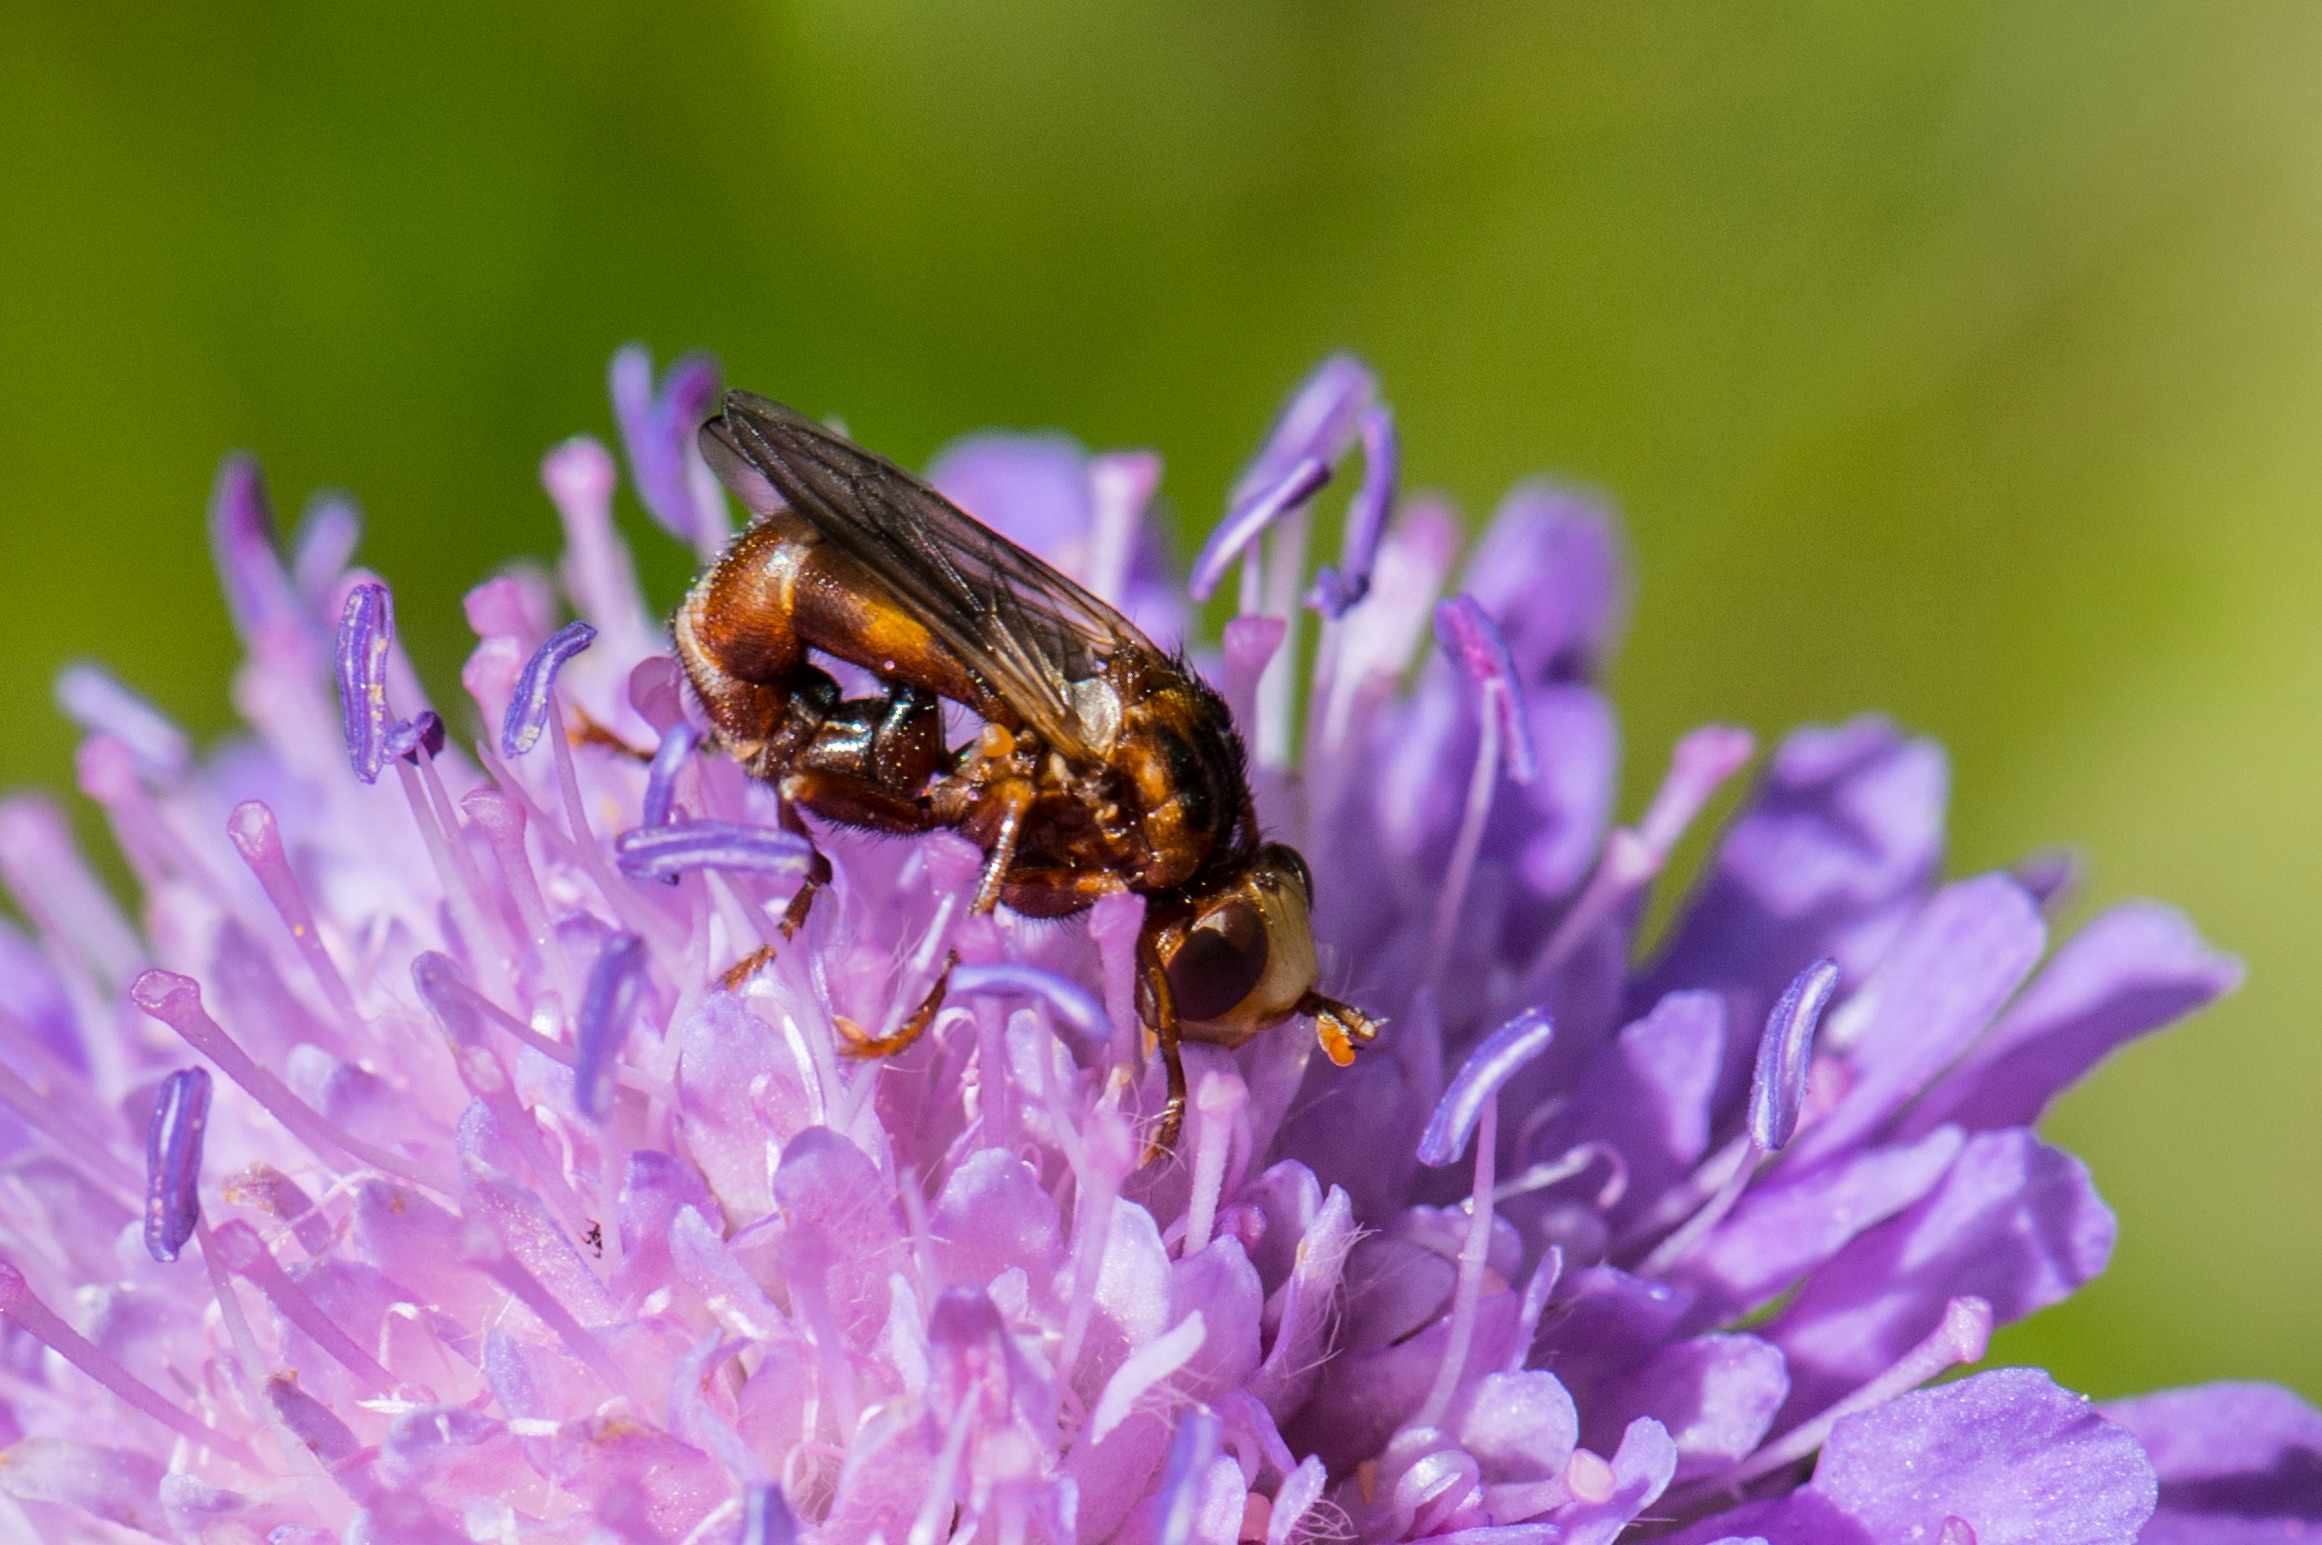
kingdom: Animalia
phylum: Arthropoda
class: Insecta
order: Diptera
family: Conopidae
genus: Sicus
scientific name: Sicus ferrugineus
